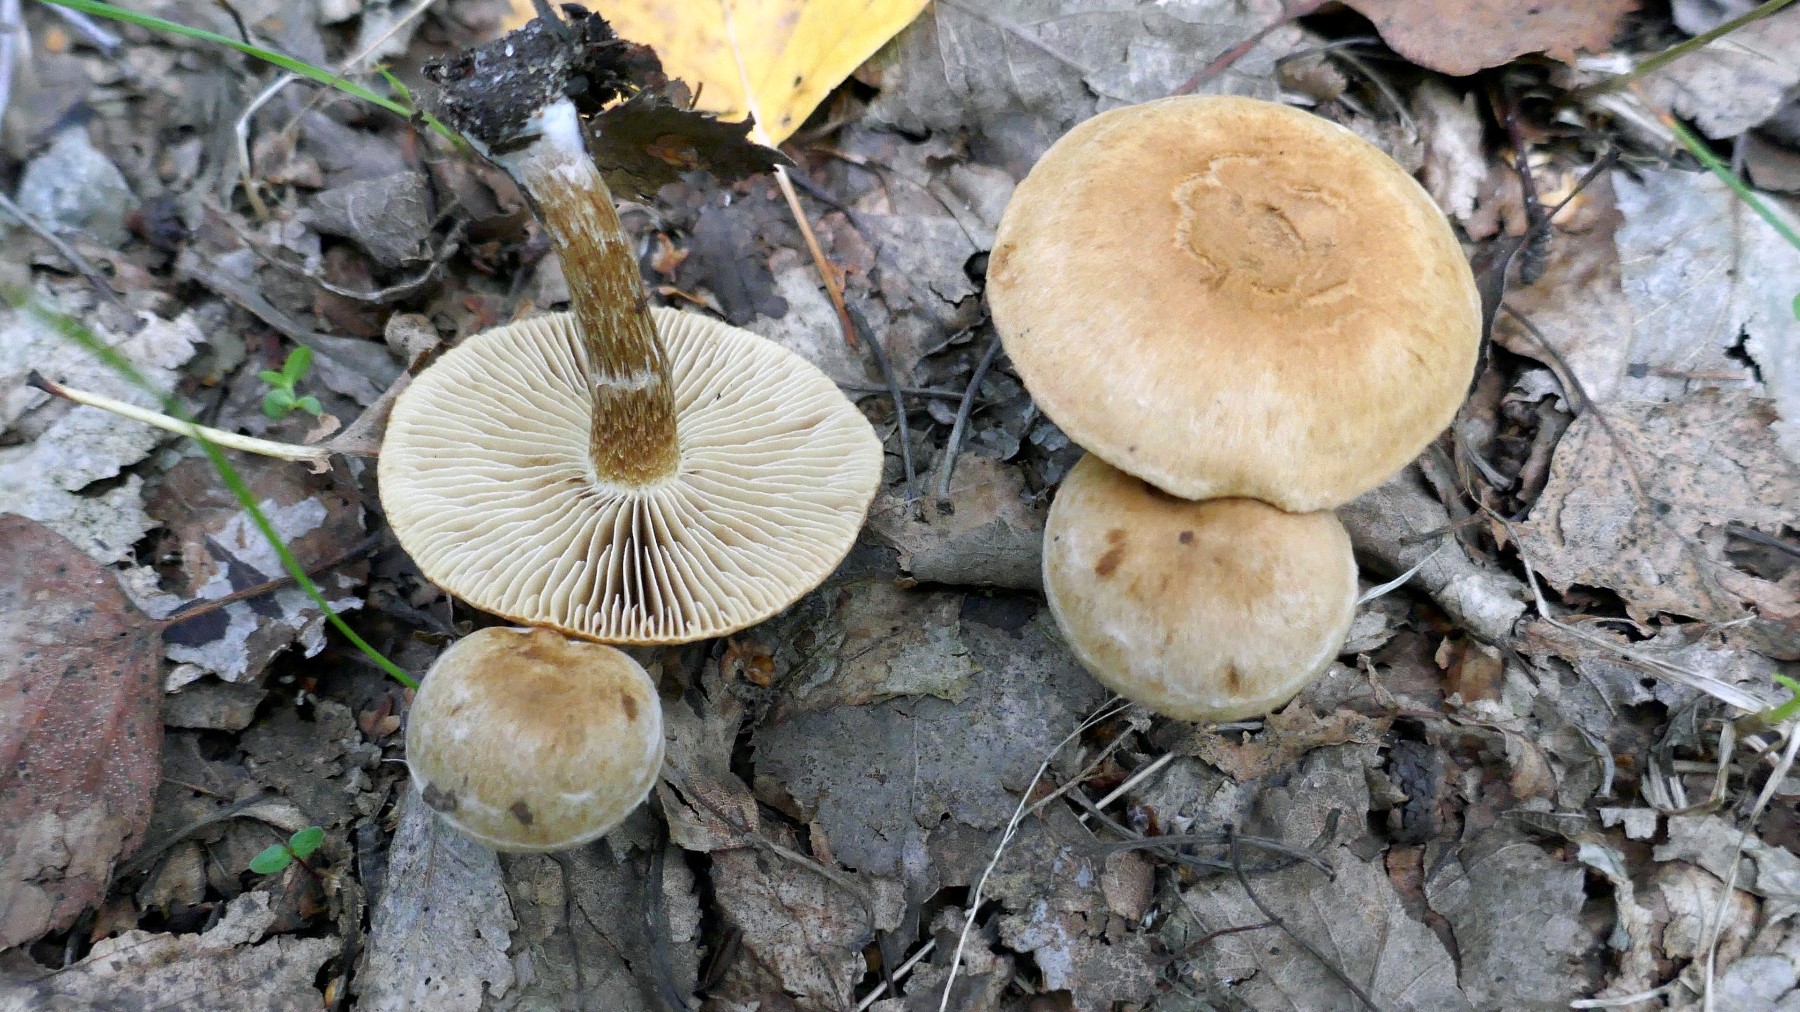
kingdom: Fungi
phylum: Basidiomycota
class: Agaricomycetes
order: Agaricales
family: Inocybaceae
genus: Inocybe
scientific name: Inocybe dulcamara
